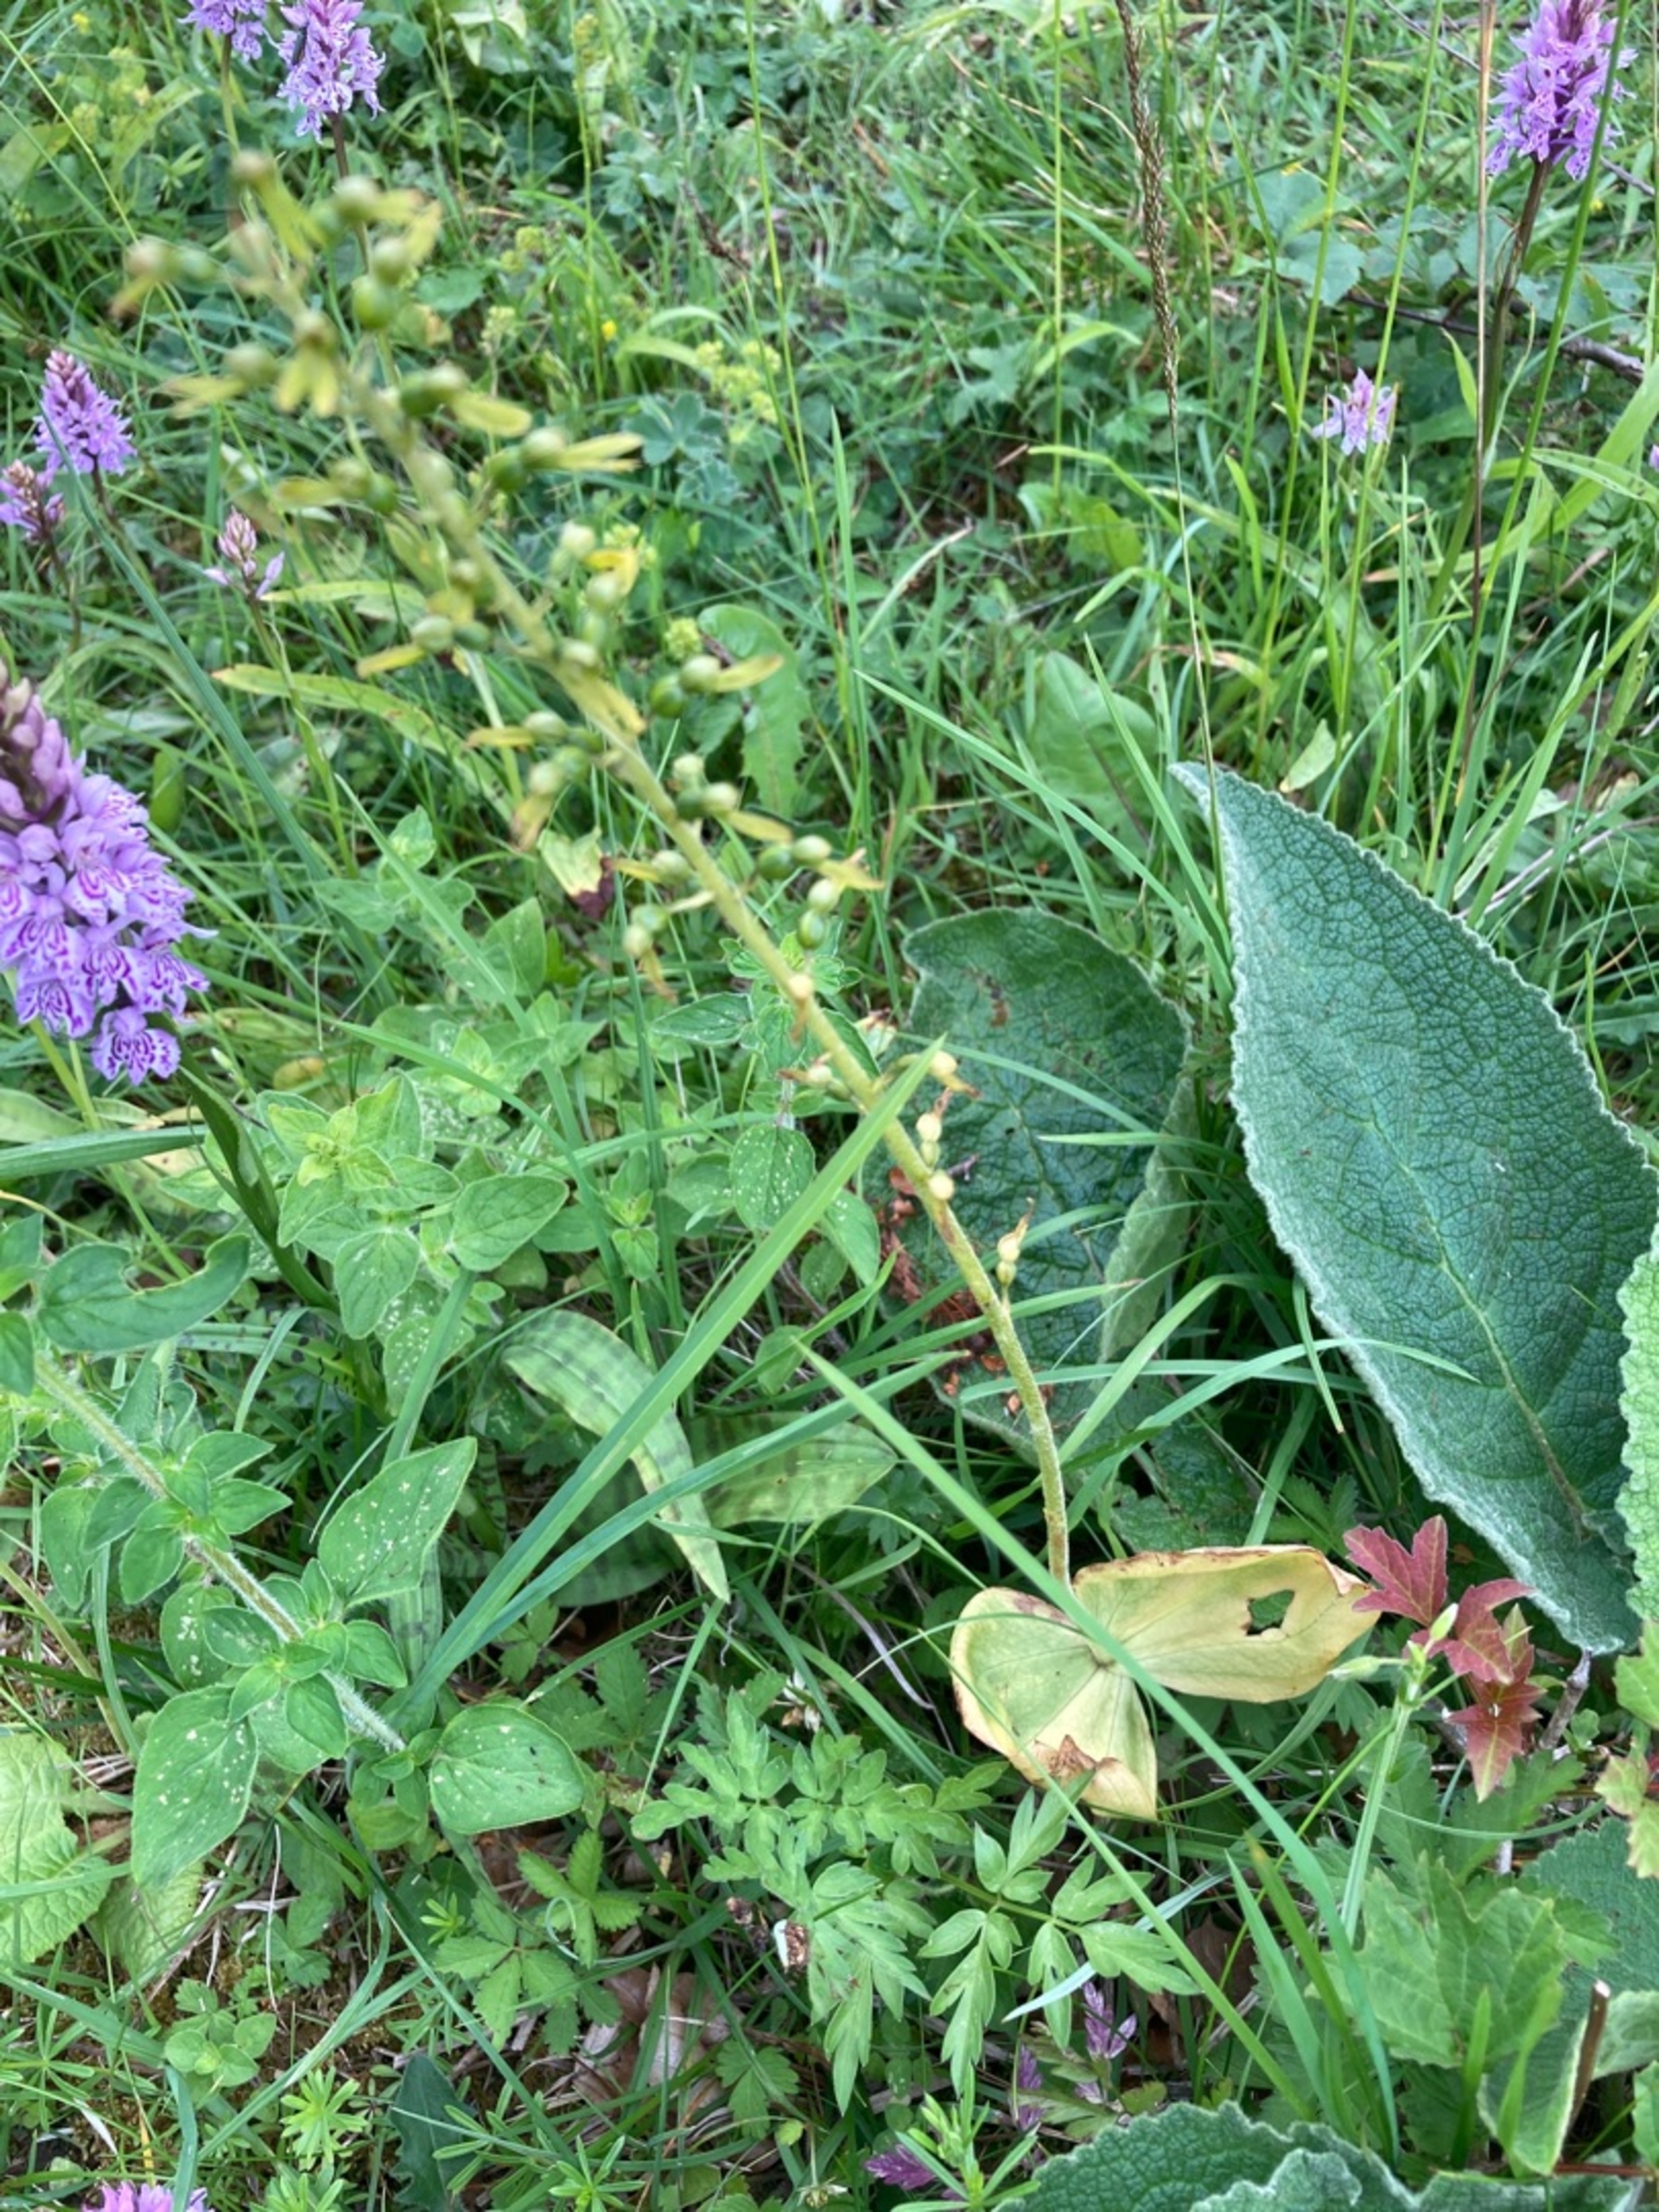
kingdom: Plantae
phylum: Tracheophyta
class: Liliopsida
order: Asparagales
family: Orchidaceae
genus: Neottia
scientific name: Neottia ovata
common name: Ægbladet fliglæbe
